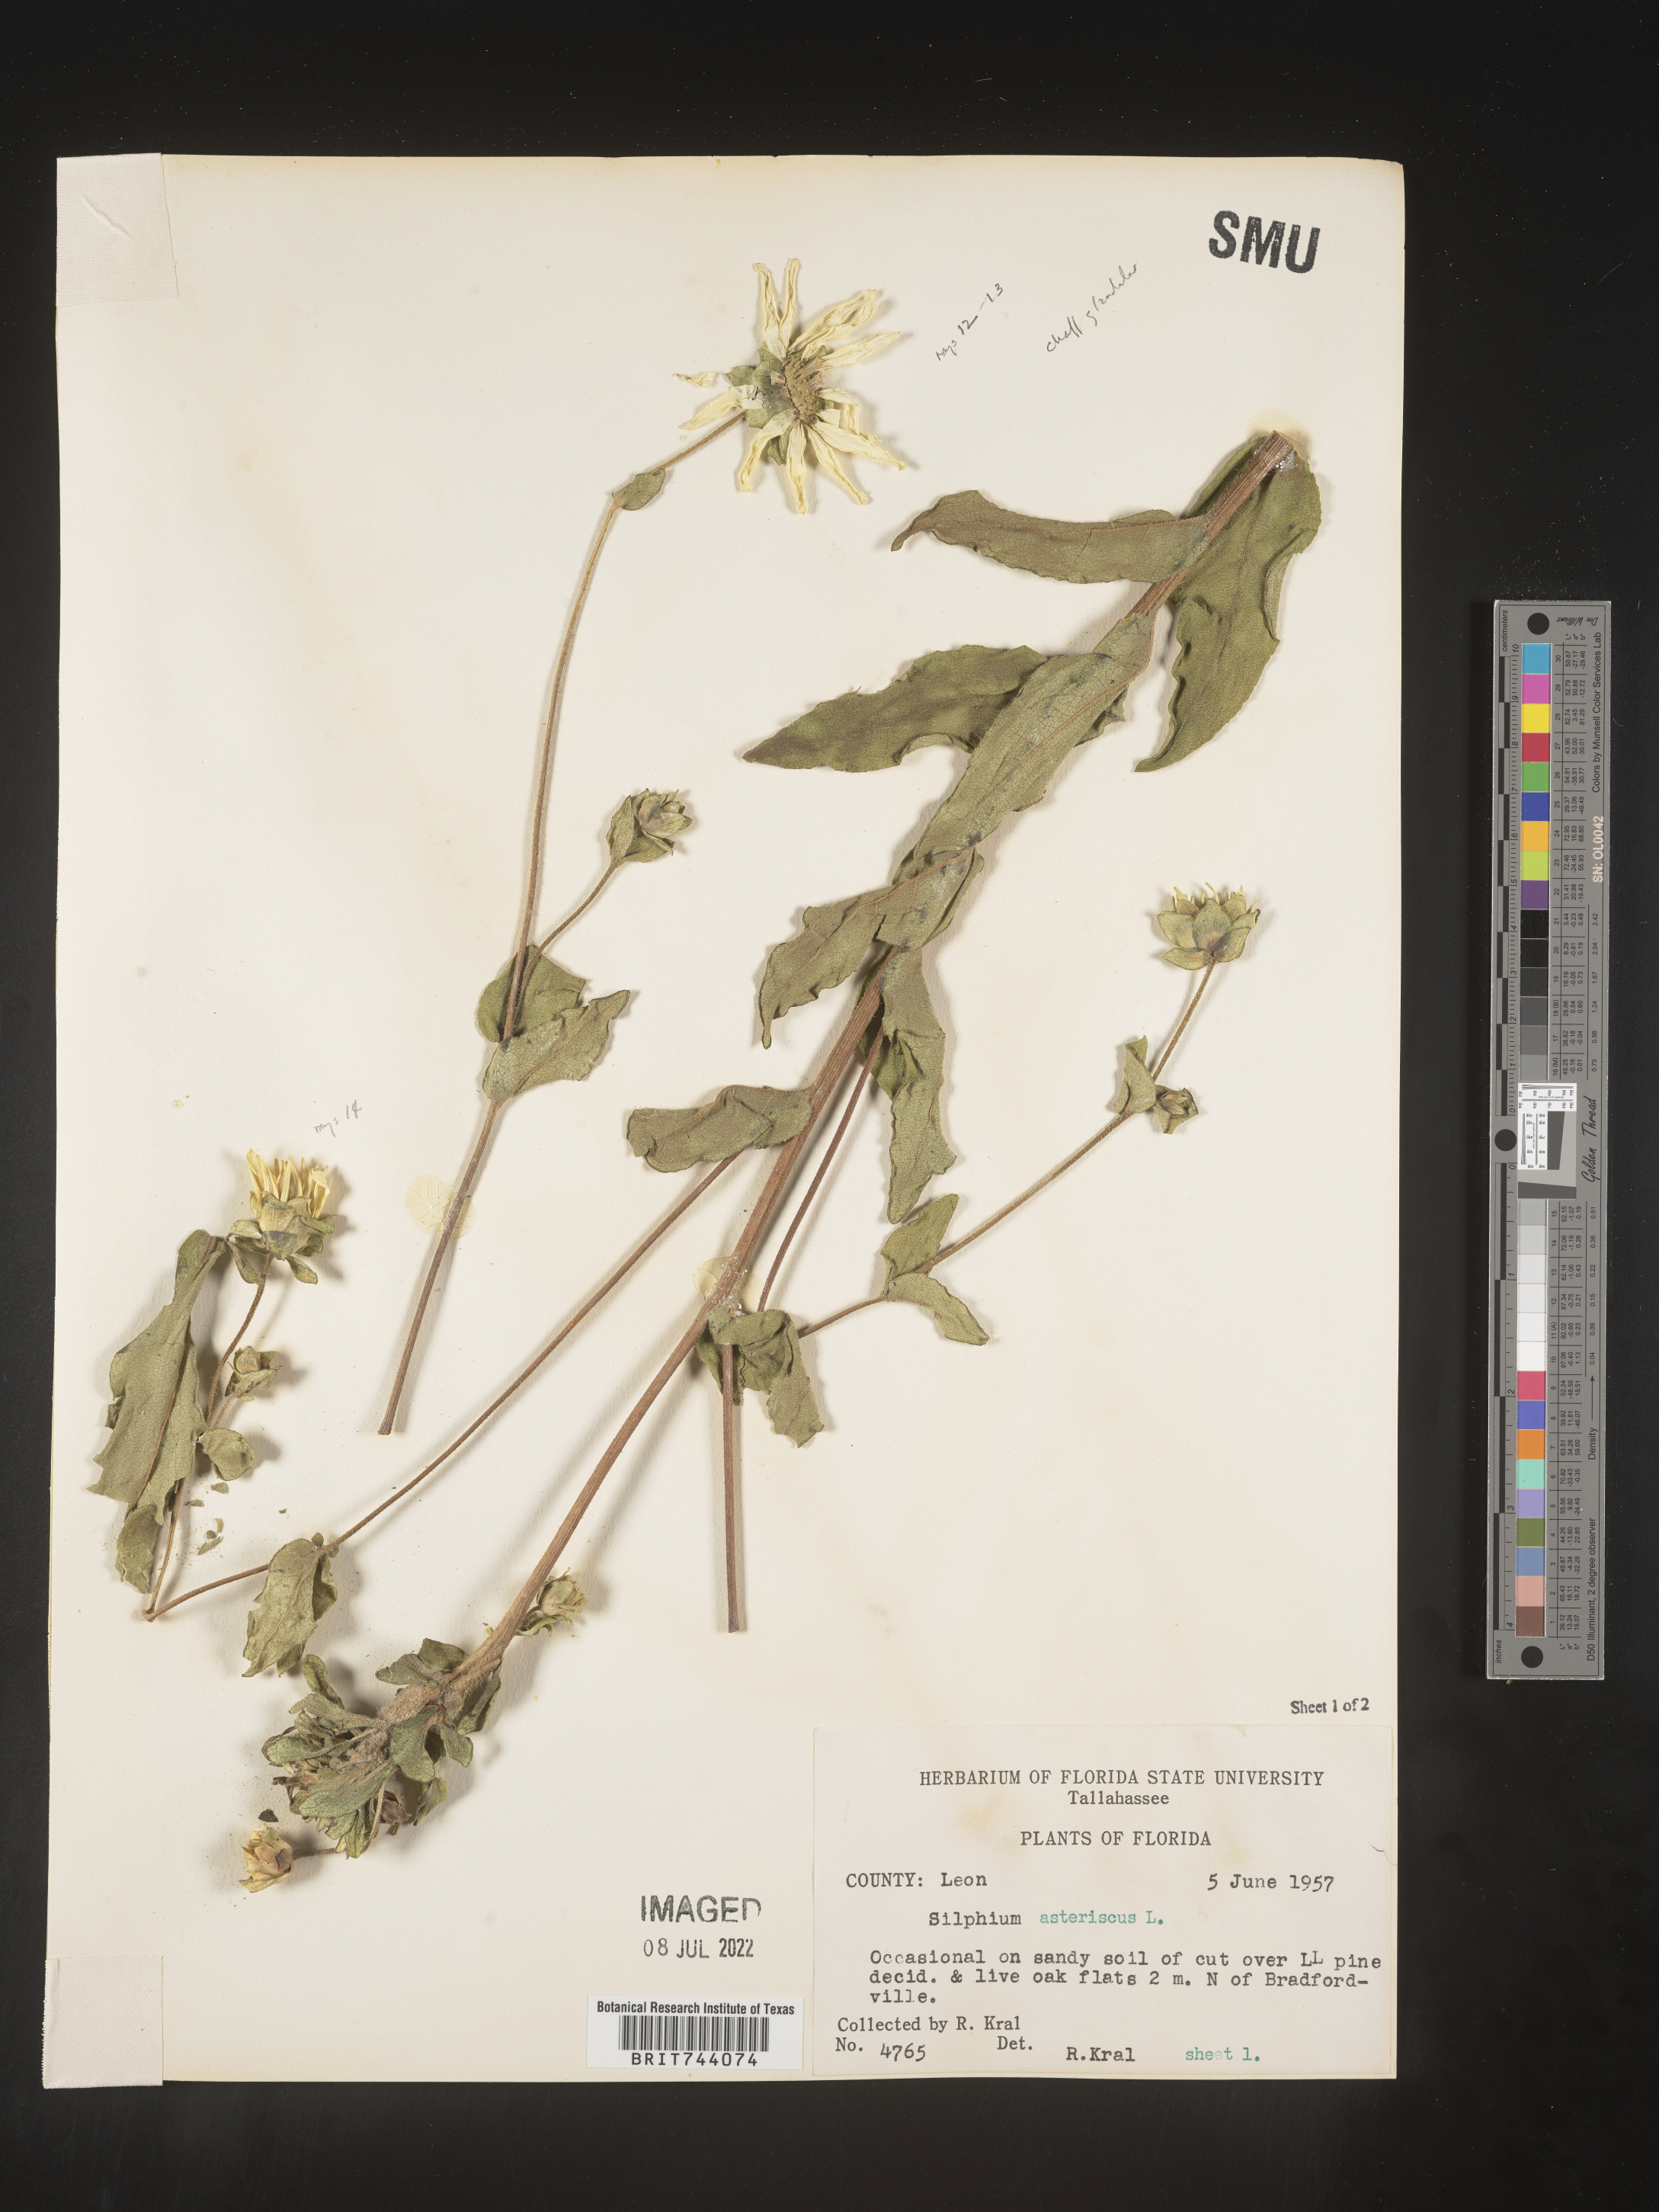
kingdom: Plantae
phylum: Tracheophyta
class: Magnoliopsida
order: Asterales
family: Asteraceae
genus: Silphium
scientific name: Silphium asteriscus
